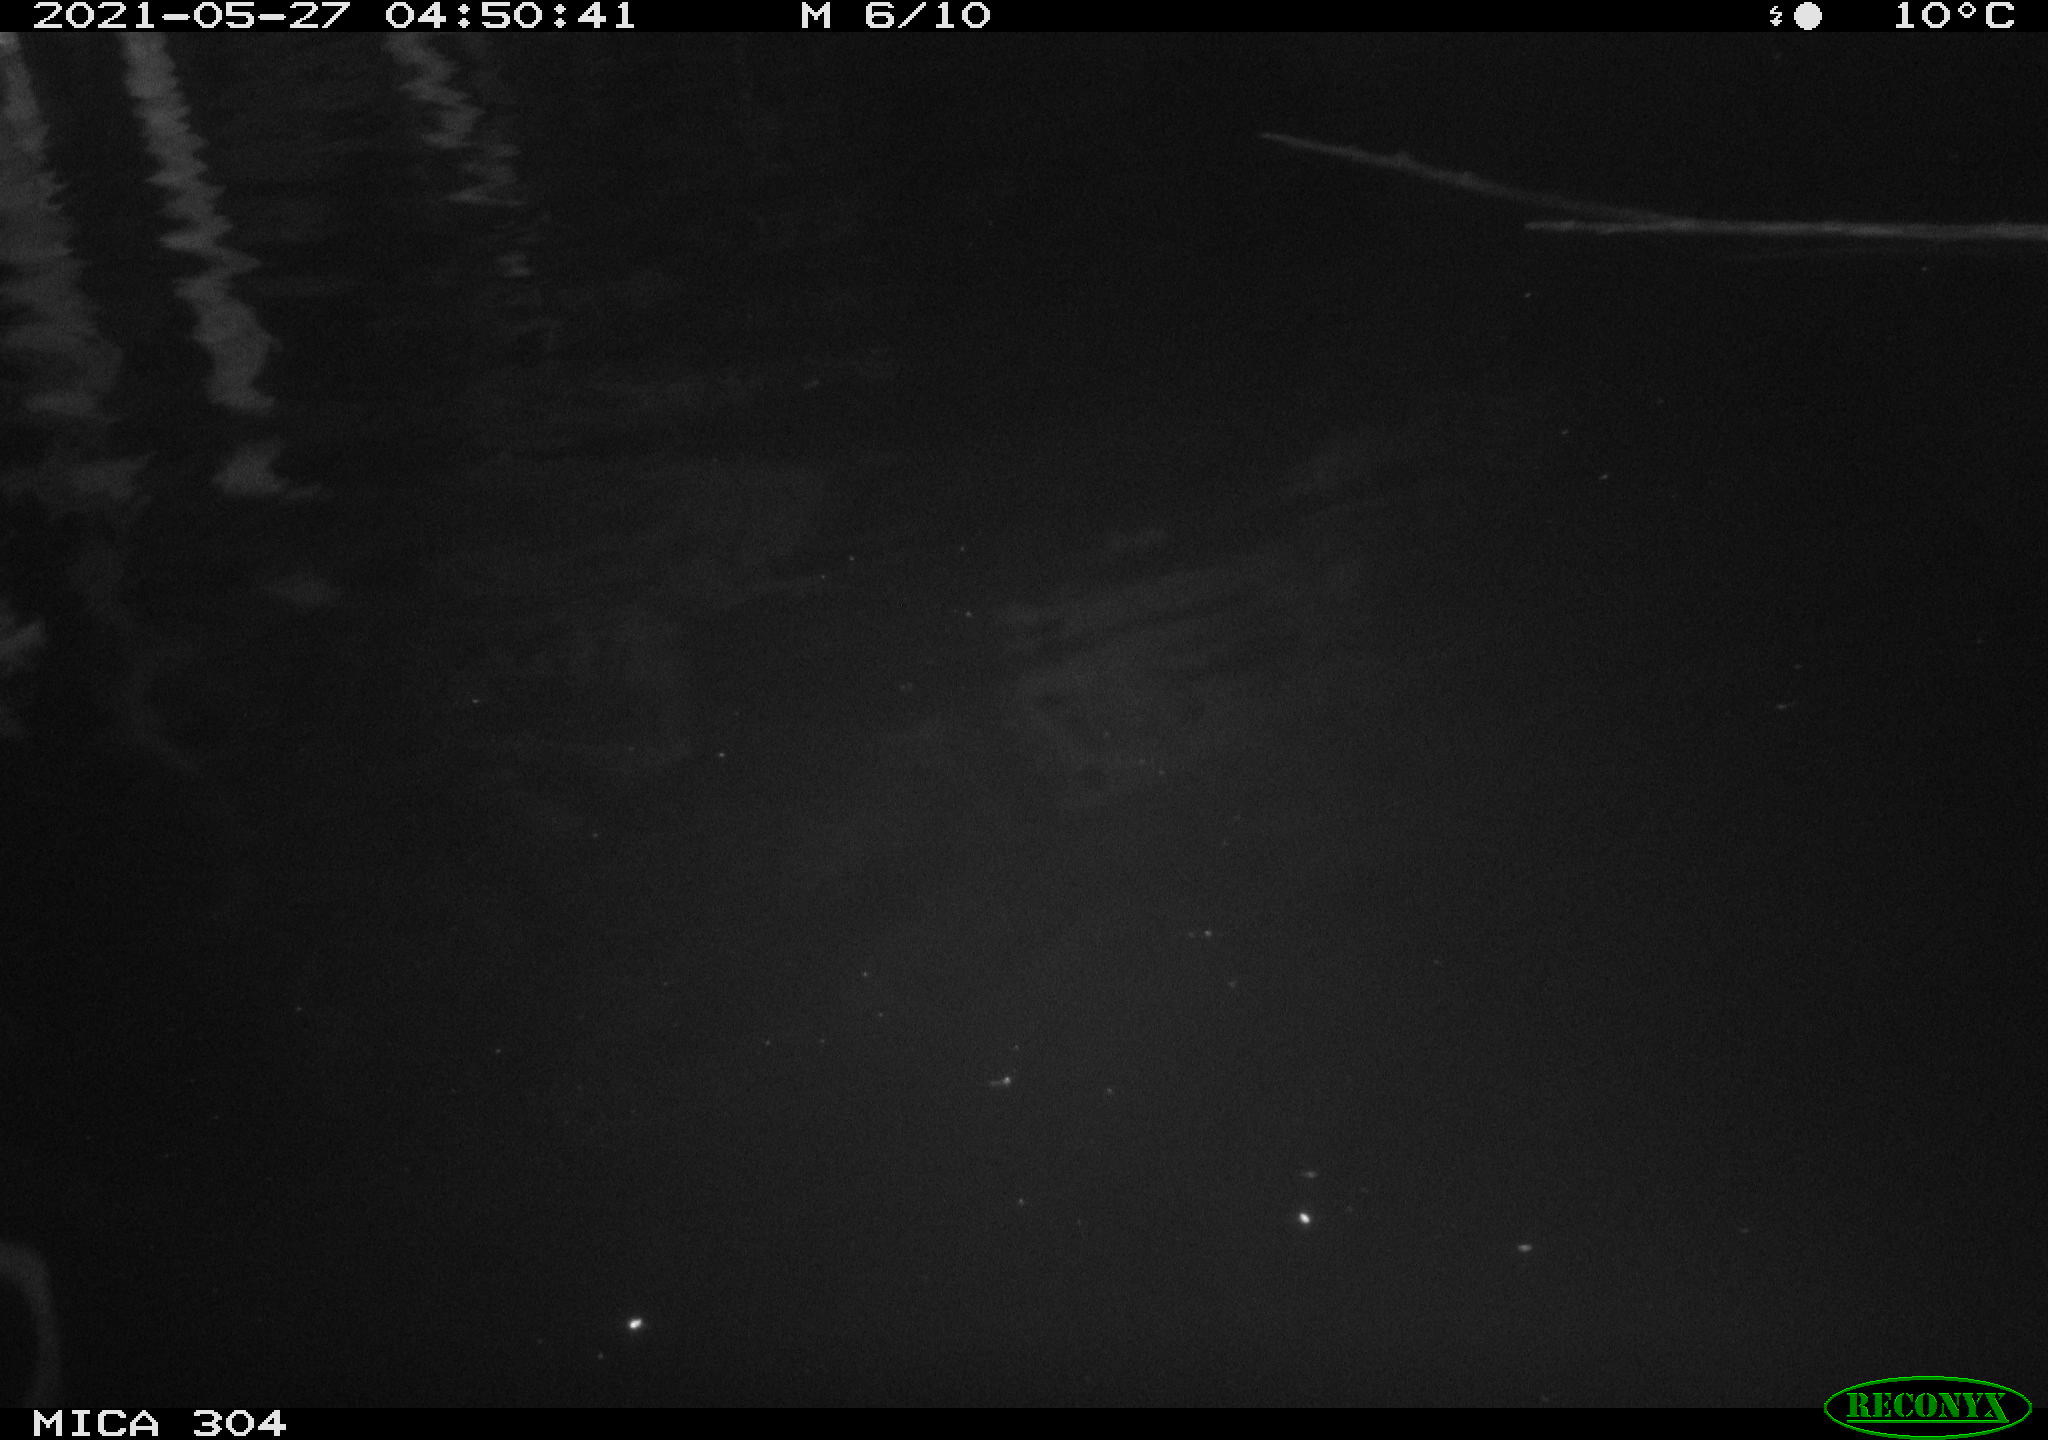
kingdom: Animalia
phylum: Chordata
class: Aves
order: Anseriformes
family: Anatidae
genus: Anas
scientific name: Anas platyrhynchos
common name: Mallard
